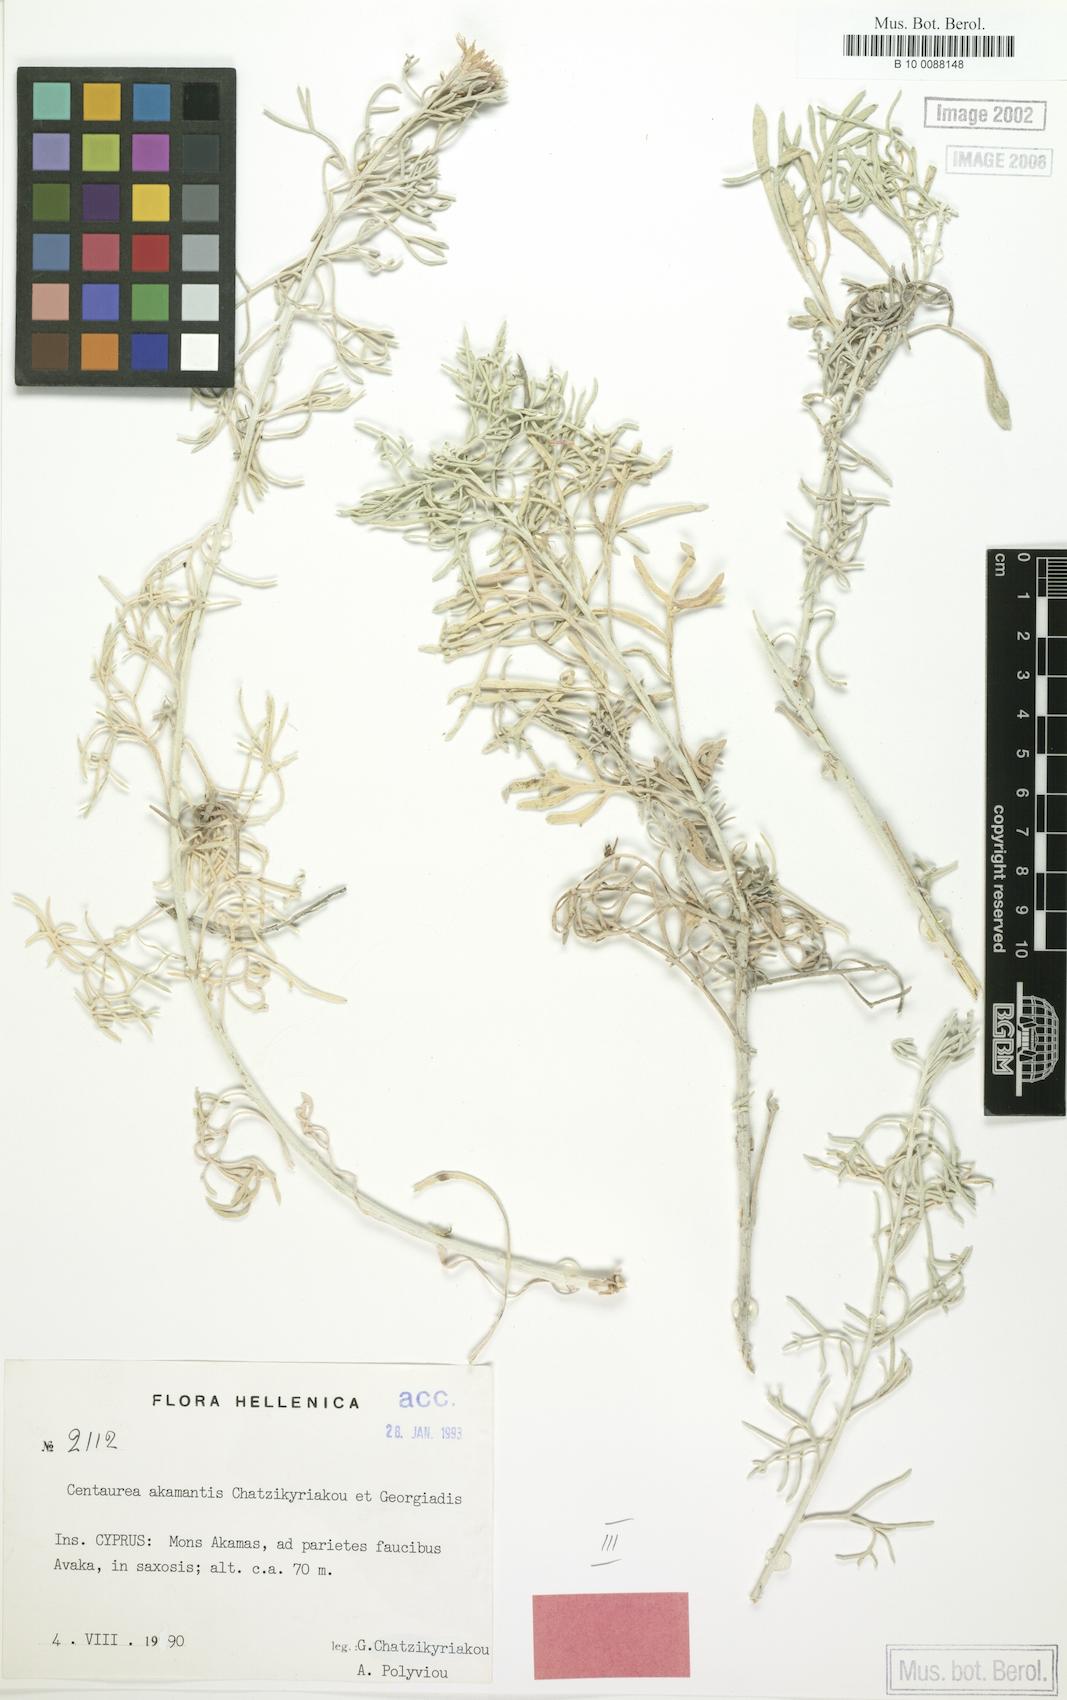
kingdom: Plantae
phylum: Tracheophyta
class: Magnoliopsida
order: Asterales
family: Asteraceae
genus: Centaurea
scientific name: Centaurea akamantis
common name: Akamas centaury
